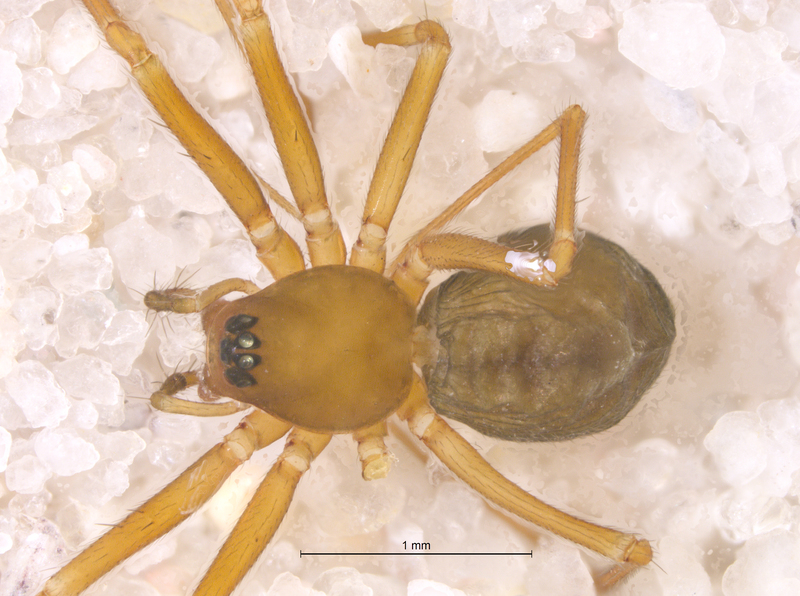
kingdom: Animalia
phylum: Arthropoda
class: Arachnida
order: Araneae
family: Linyphiidae
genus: Diplostyla
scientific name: Diplostyla concolor
